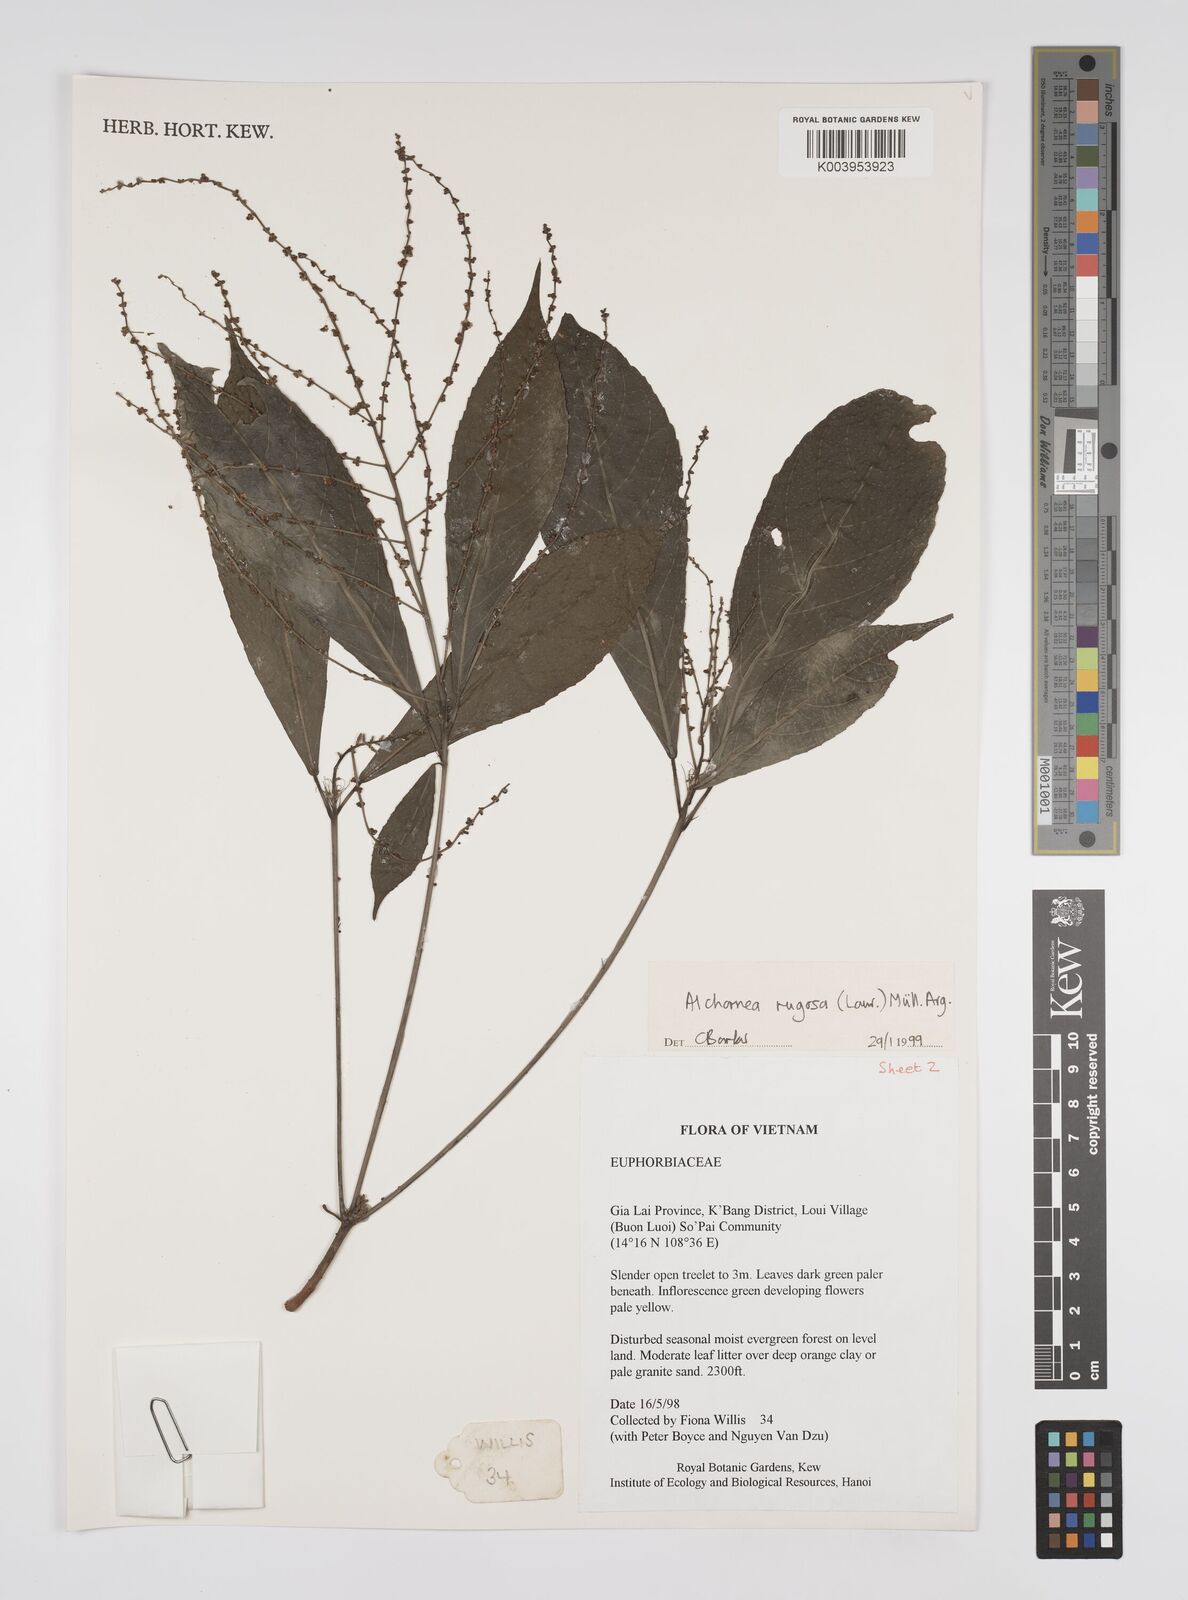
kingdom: Plantae
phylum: Tracheophyta
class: Magnoliopsida
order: Malpighiales
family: Euphorbiaceae
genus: Alchornea
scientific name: Alchornea rugosa
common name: Alchorntree
